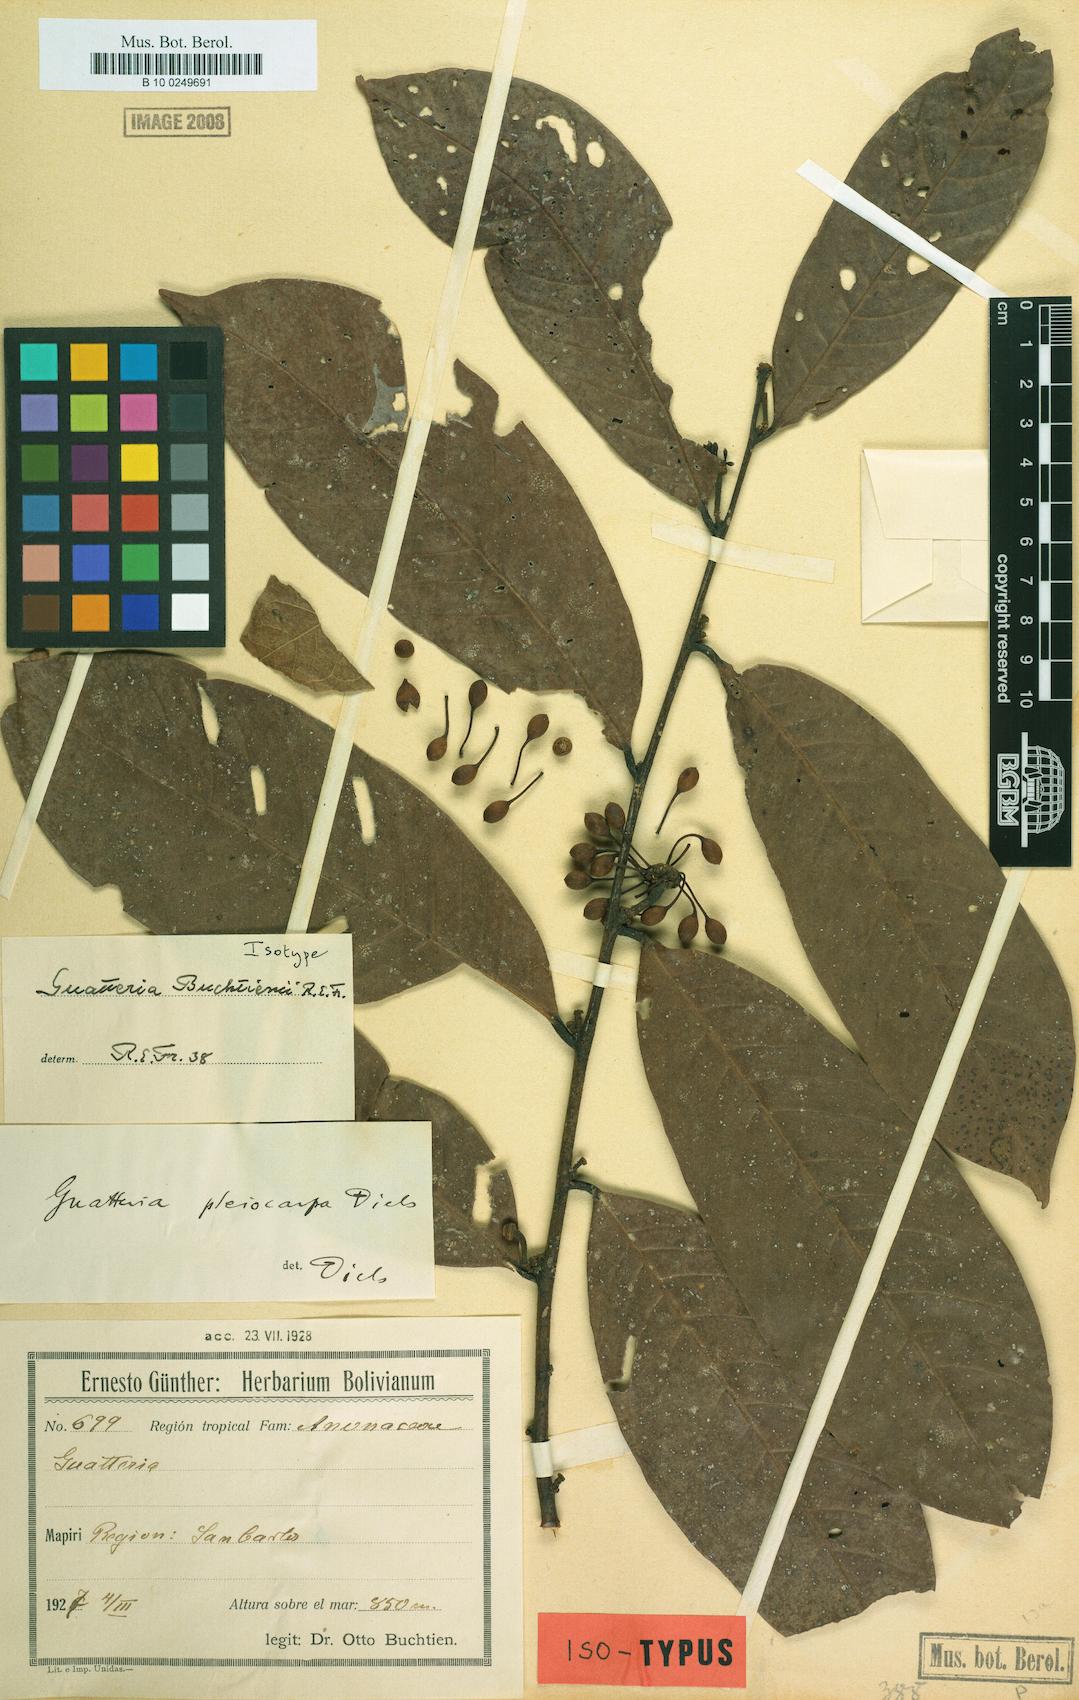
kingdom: Plantae
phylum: Tracheophyta
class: Magnoliopsida
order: Magnoliales
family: Annonaceae
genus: Guatteria
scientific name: Guatteria glauca
